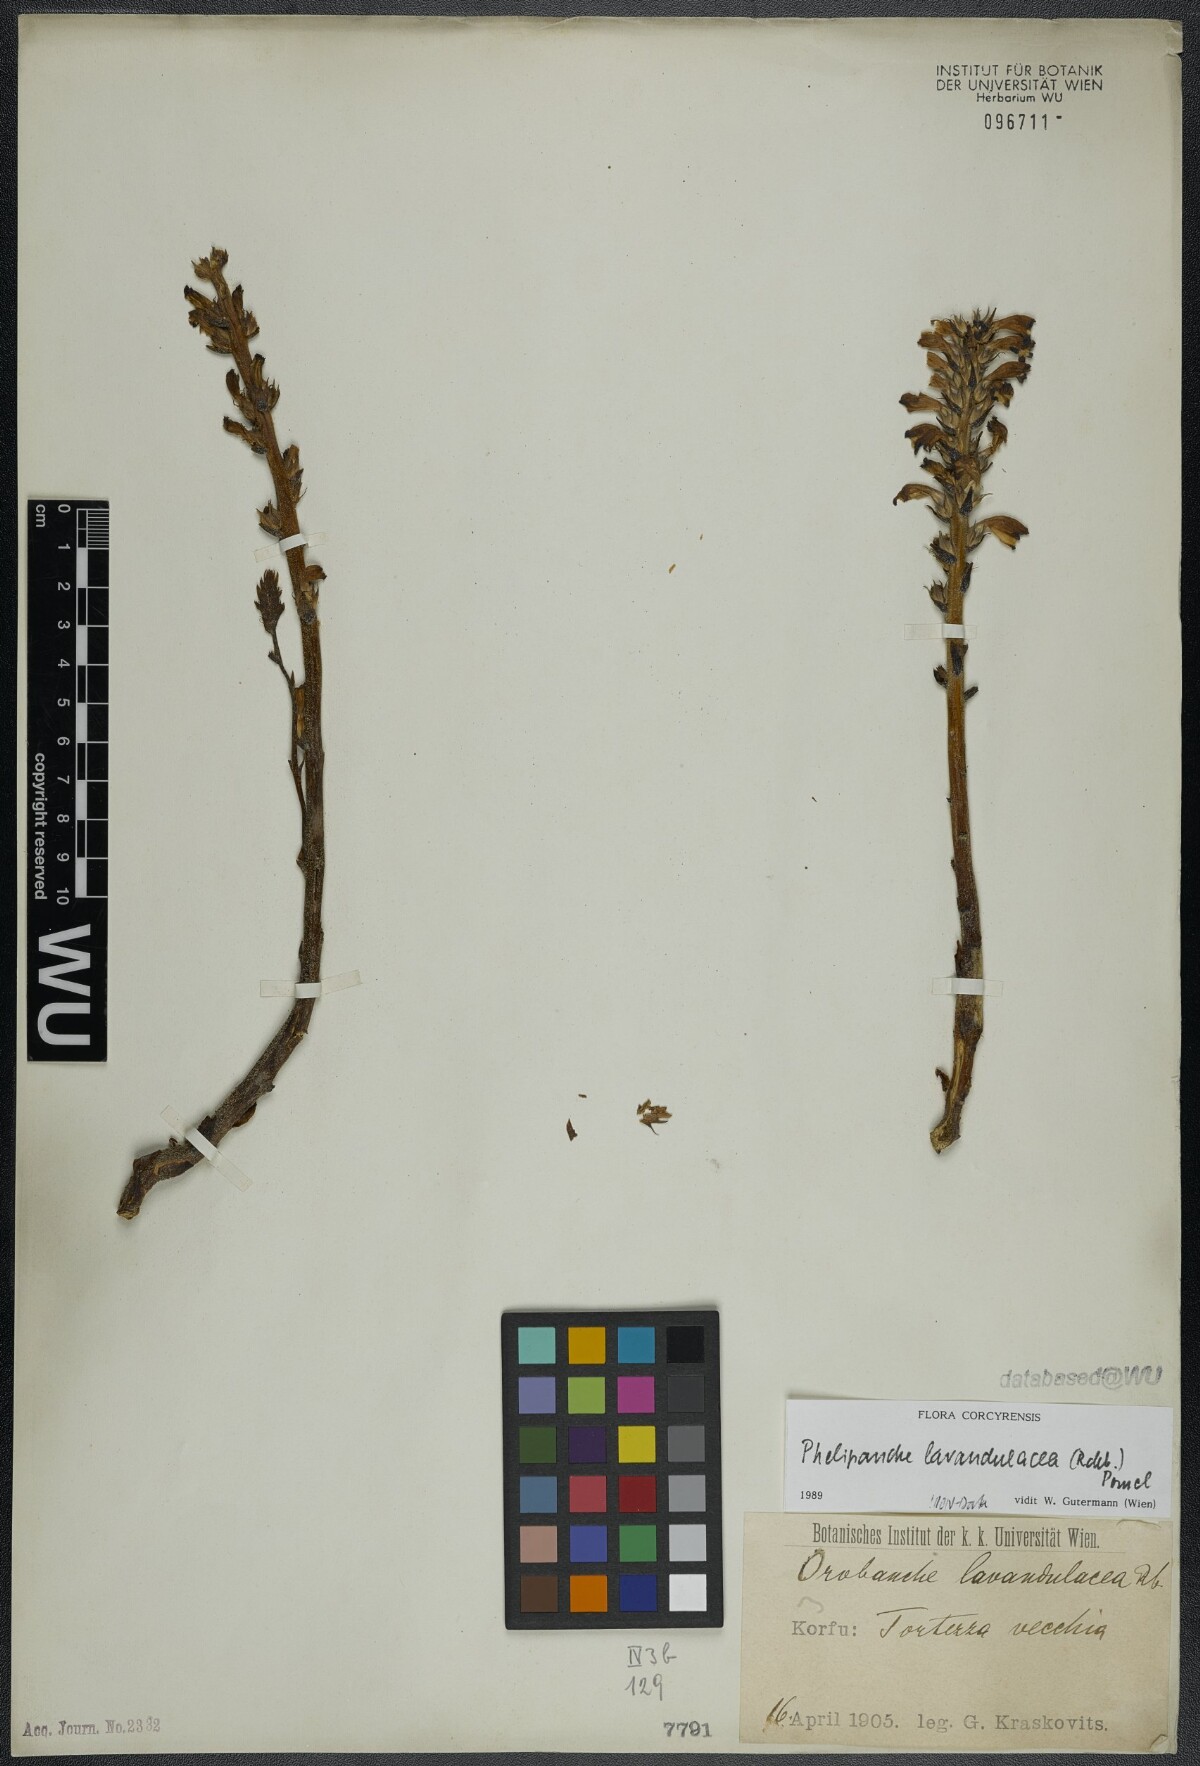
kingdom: Plantae
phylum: Tracheophyta
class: Magnoliopsida
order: Lamiales
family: Orobanchaceae
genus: Phelipanche
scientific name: Phelipanche lavandulacea
